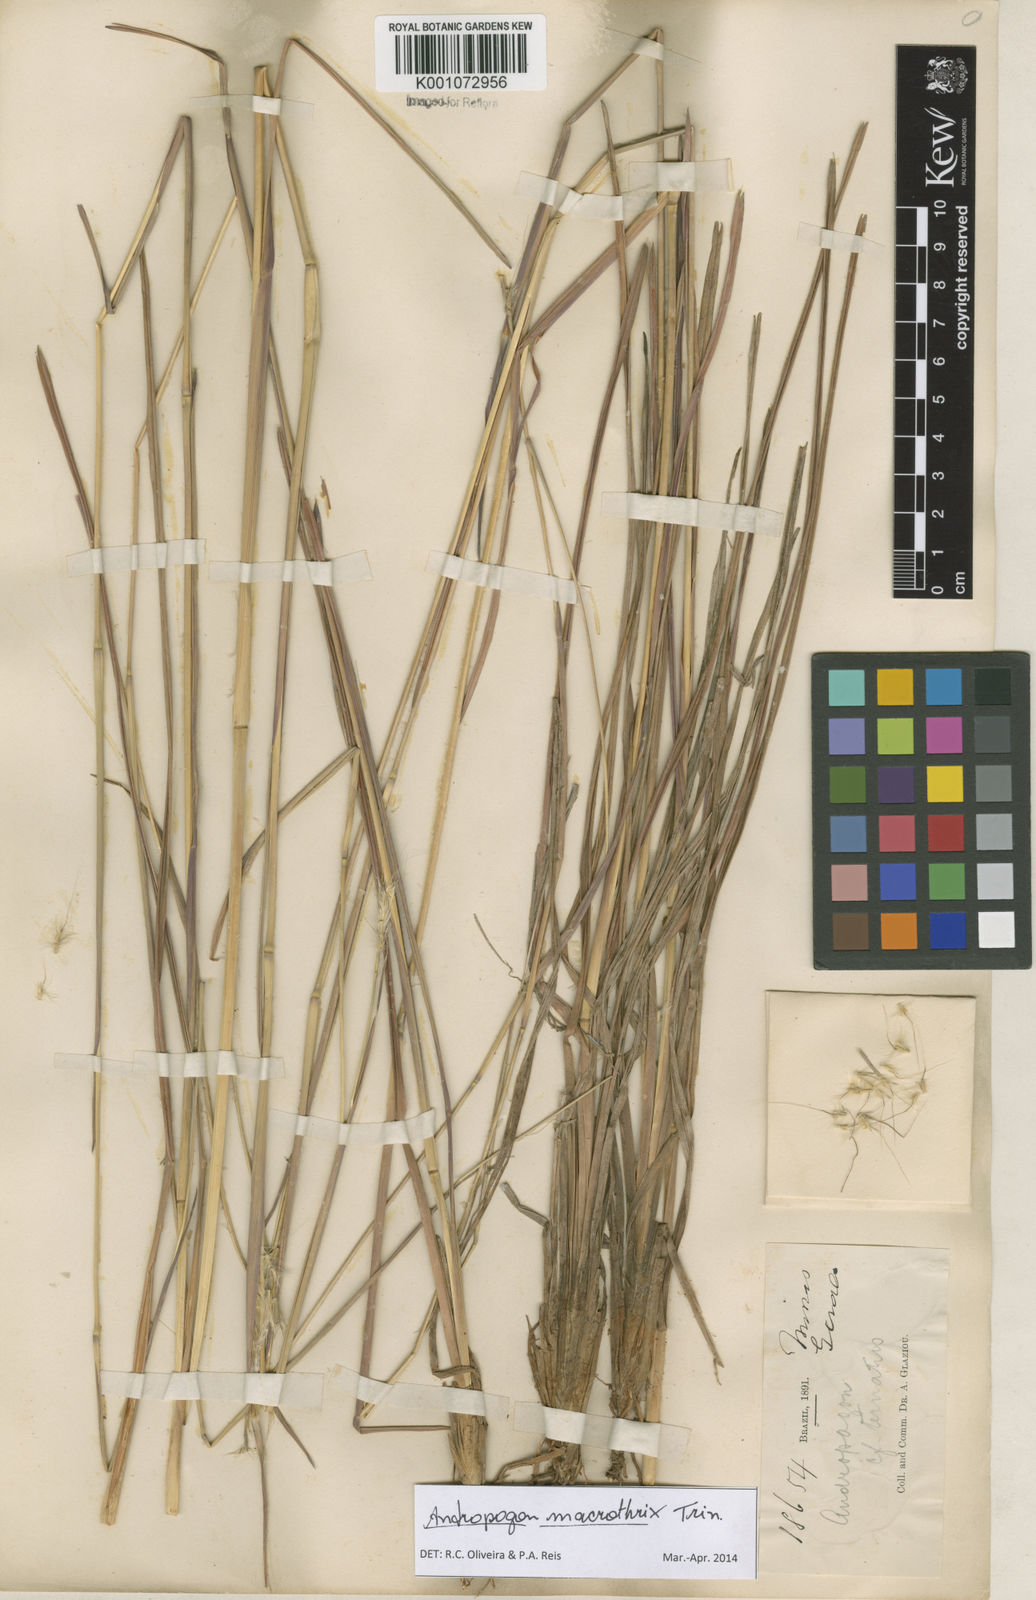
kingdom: Plantae
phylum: Tracheophyta
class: Liliopsida
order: Poales
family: Poaceae
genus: Andropogon
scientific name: Andropogon macrothrix
